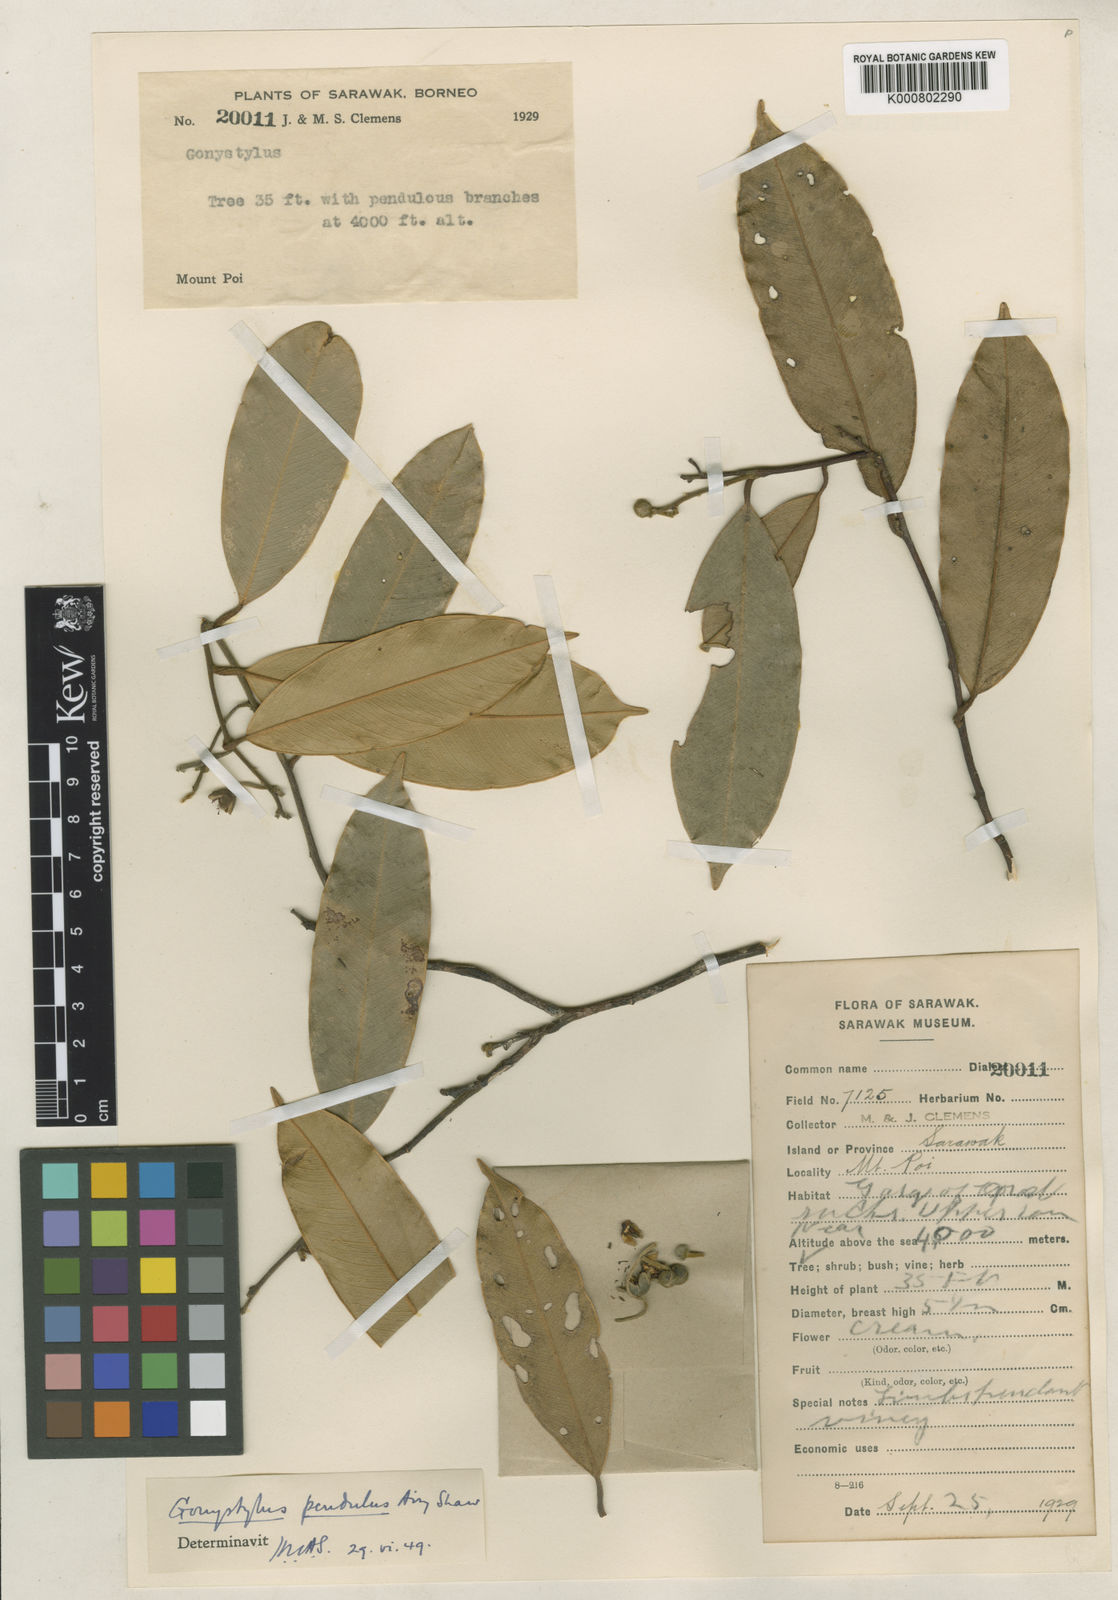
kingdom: Plantae
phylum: Tracheophyta
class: Magnoliopsida
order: Malvales
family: Thymelaeaceae
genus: Gonystylus
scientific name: Gonystylus pendulus
